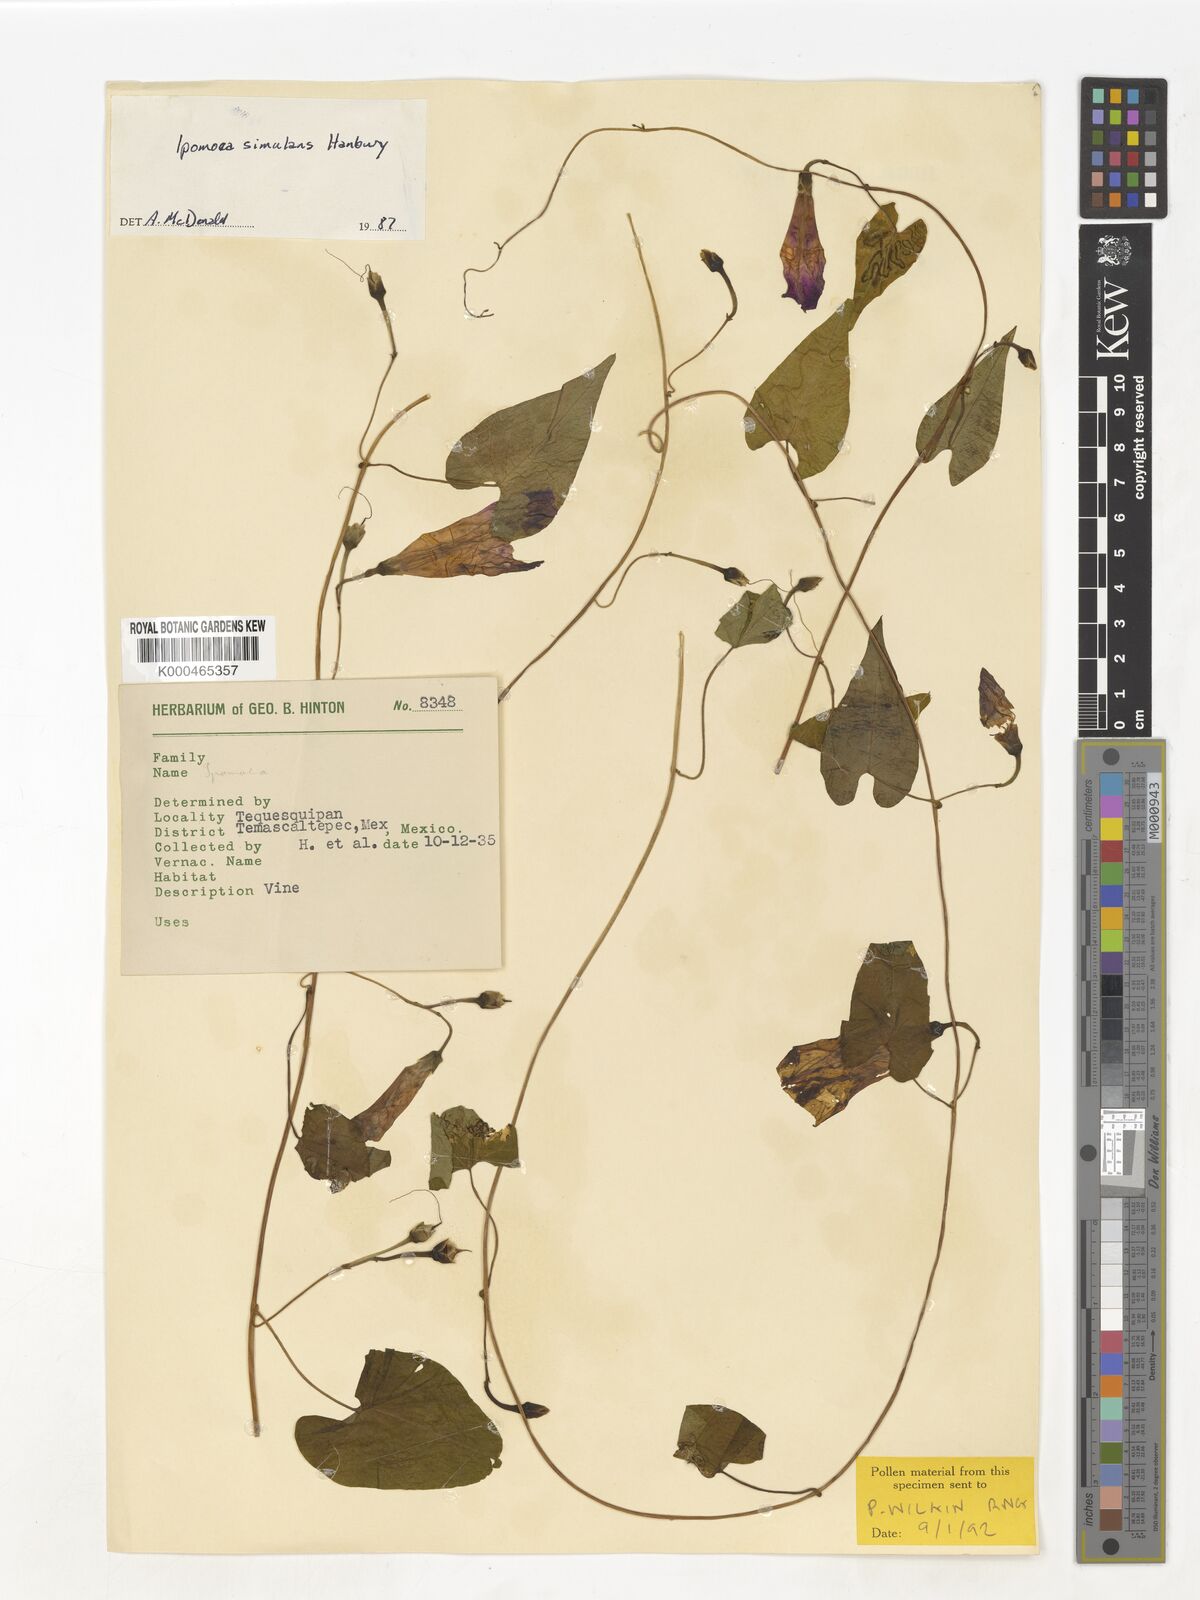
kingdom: Plantae
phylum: Tracheophyta
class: Magnoliopsida
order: Solanales
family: Convolvulaceae
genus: Ipomoea
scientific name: Ipomoea simulans
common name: Tampico jalap
